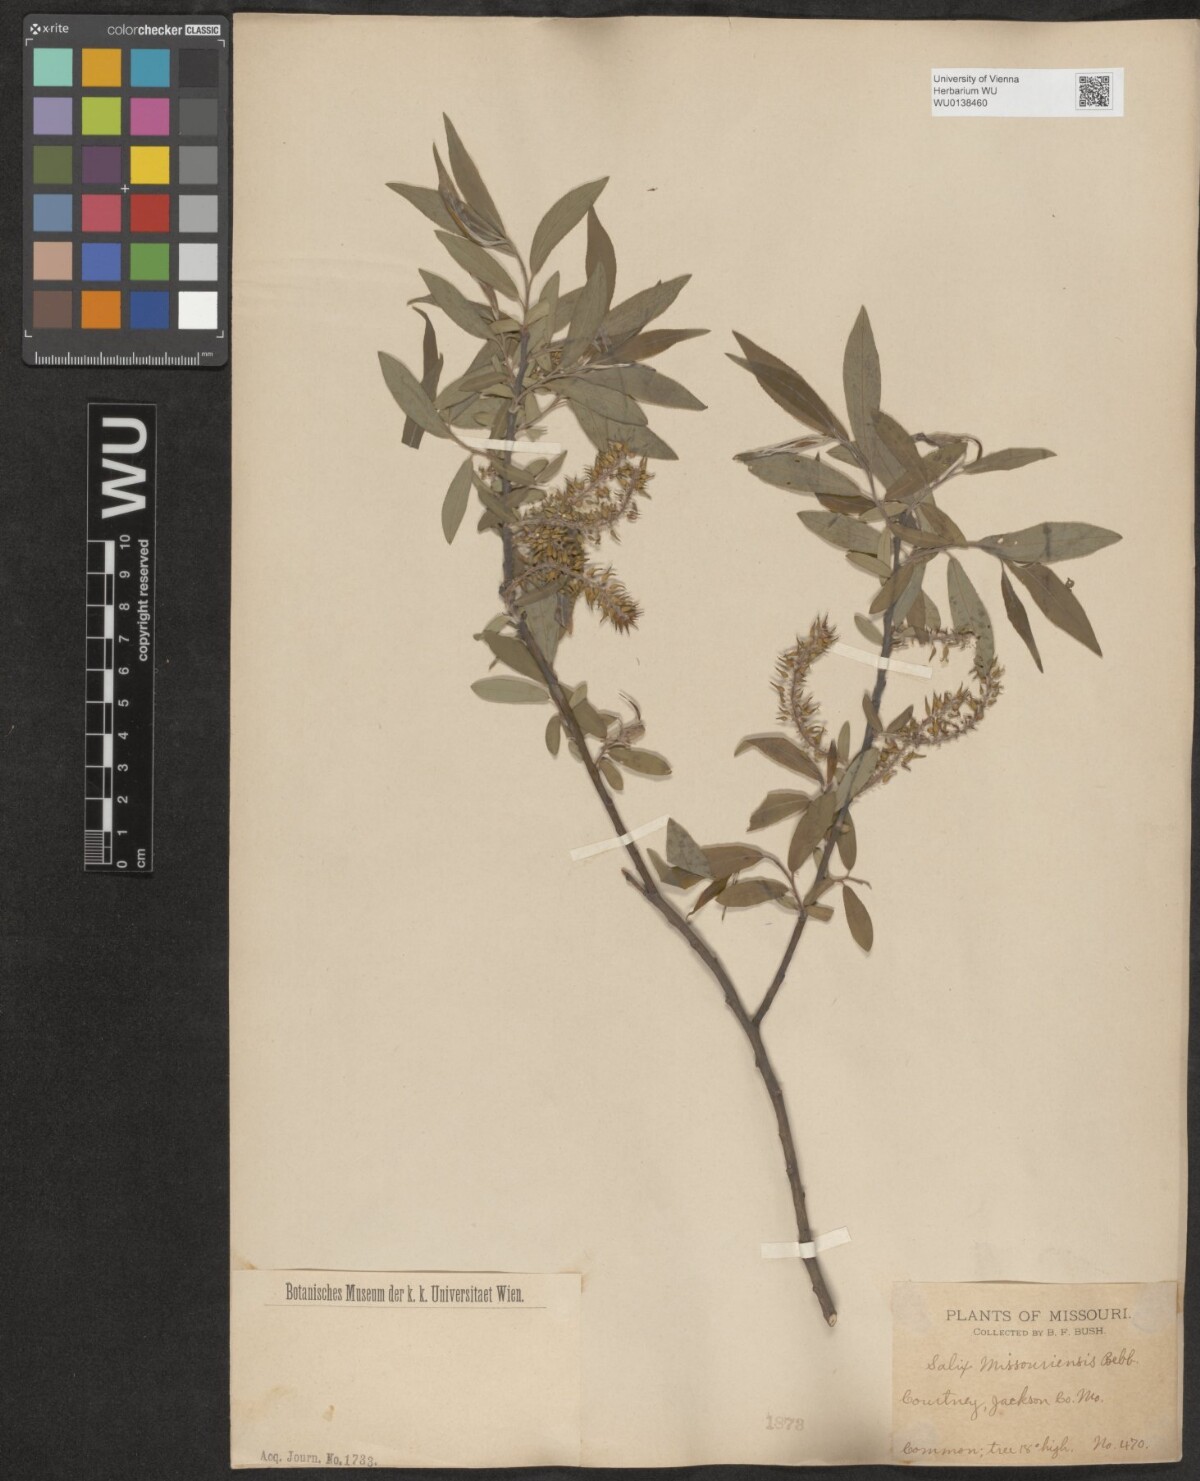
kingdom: Plantae
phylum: Tracheophyta
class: Magnoliopsida
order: Malpighiales
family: Salicaceae
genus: Salix
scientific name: Salix eriocephala
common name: Heart-leaved willow
